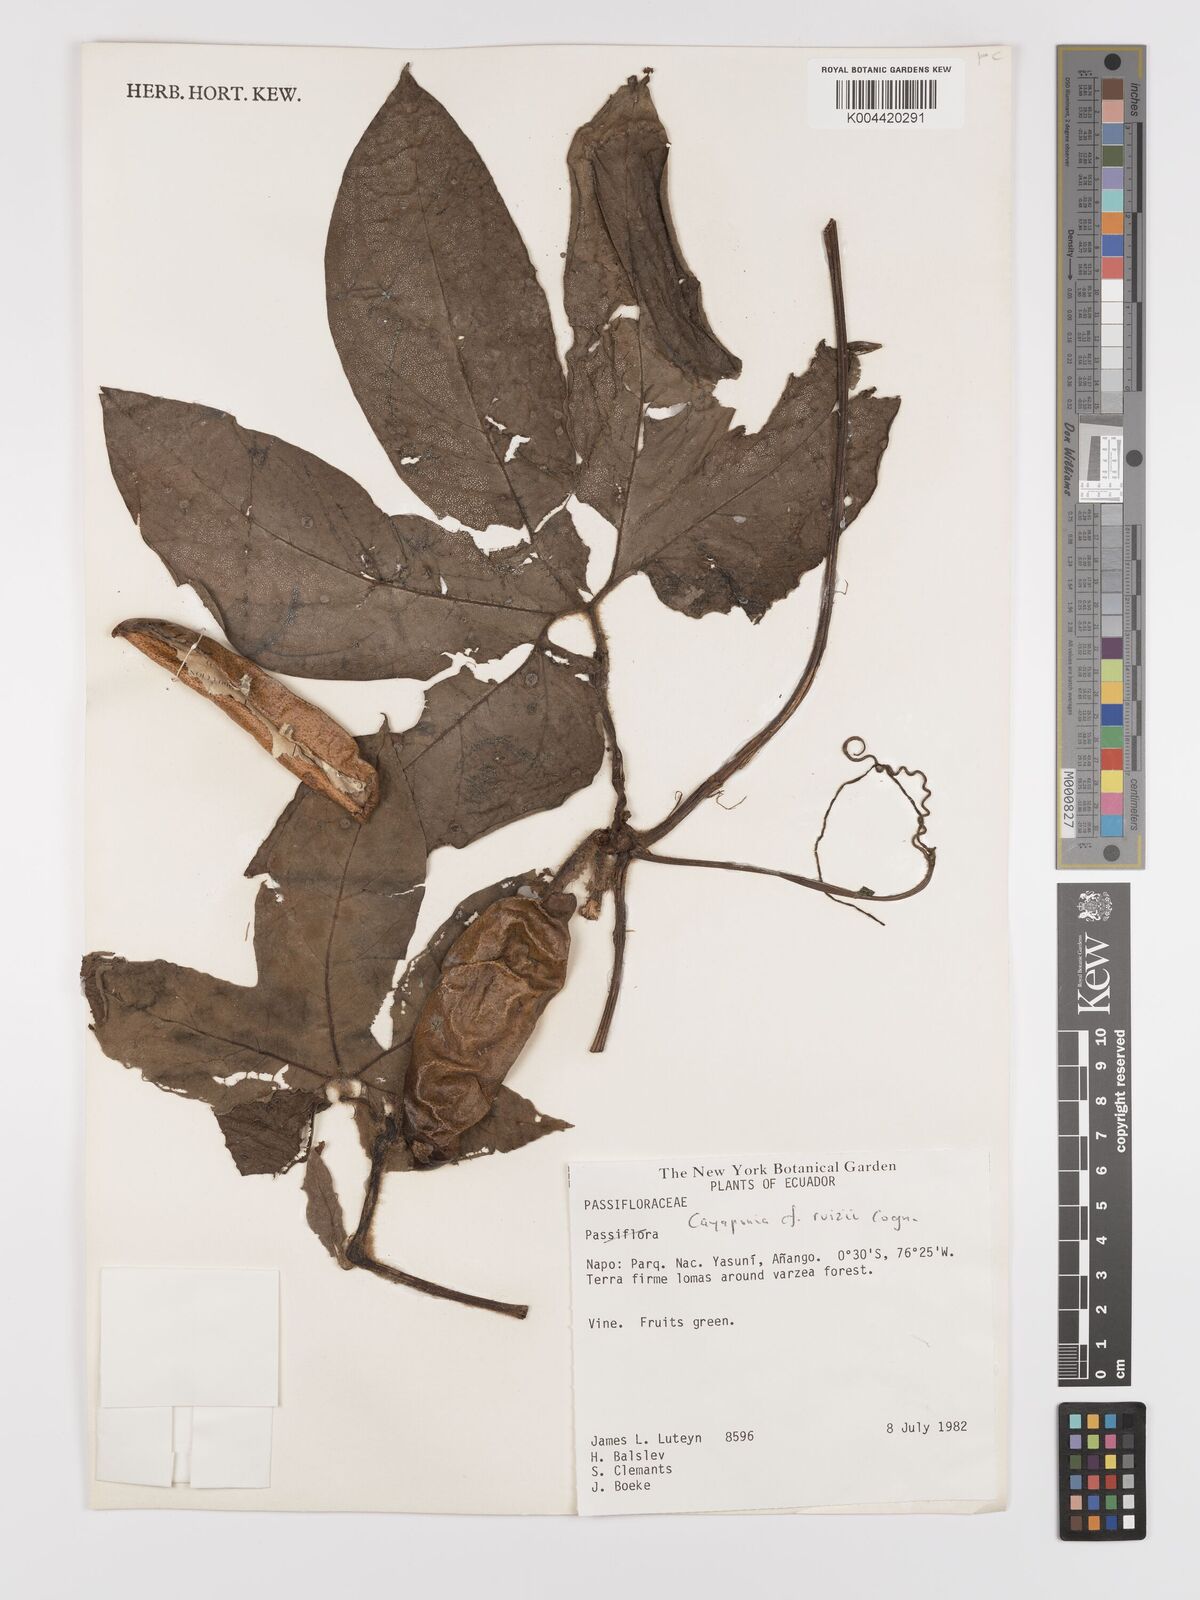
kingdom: Plantae
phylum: Tracheophyta
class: Magnoliopsida
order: Cucurbitales
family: Cucurbitaceae
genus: Cayaponia
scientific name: Cayaponia ruizii
